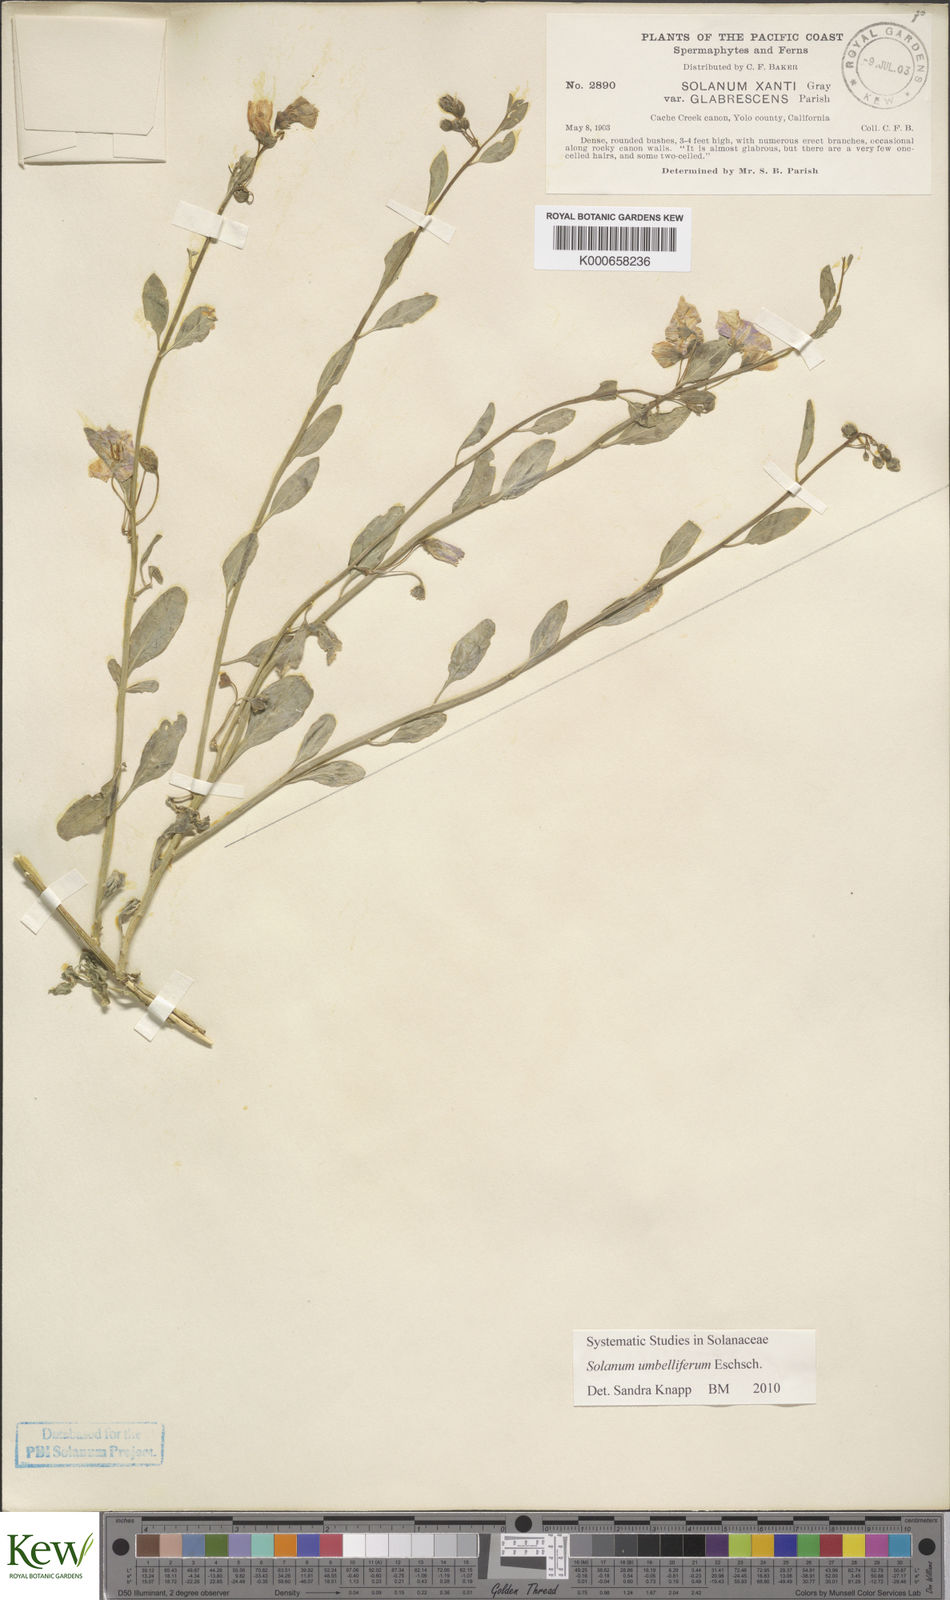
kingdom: Plantae
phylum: Tracheophyta
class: Magnoliopsida
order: Solanales
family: Solanaceae
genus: Solanum
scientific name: Solanum umbelliferum
